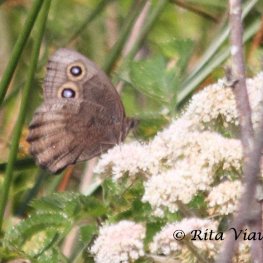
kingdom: Animalia
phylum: Arthropoda
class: Insecta
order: Lepidoptera
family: Nymphalidae
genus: Cercyonis
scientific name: Cercyonis pegala
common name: Common Wood-Nymph
